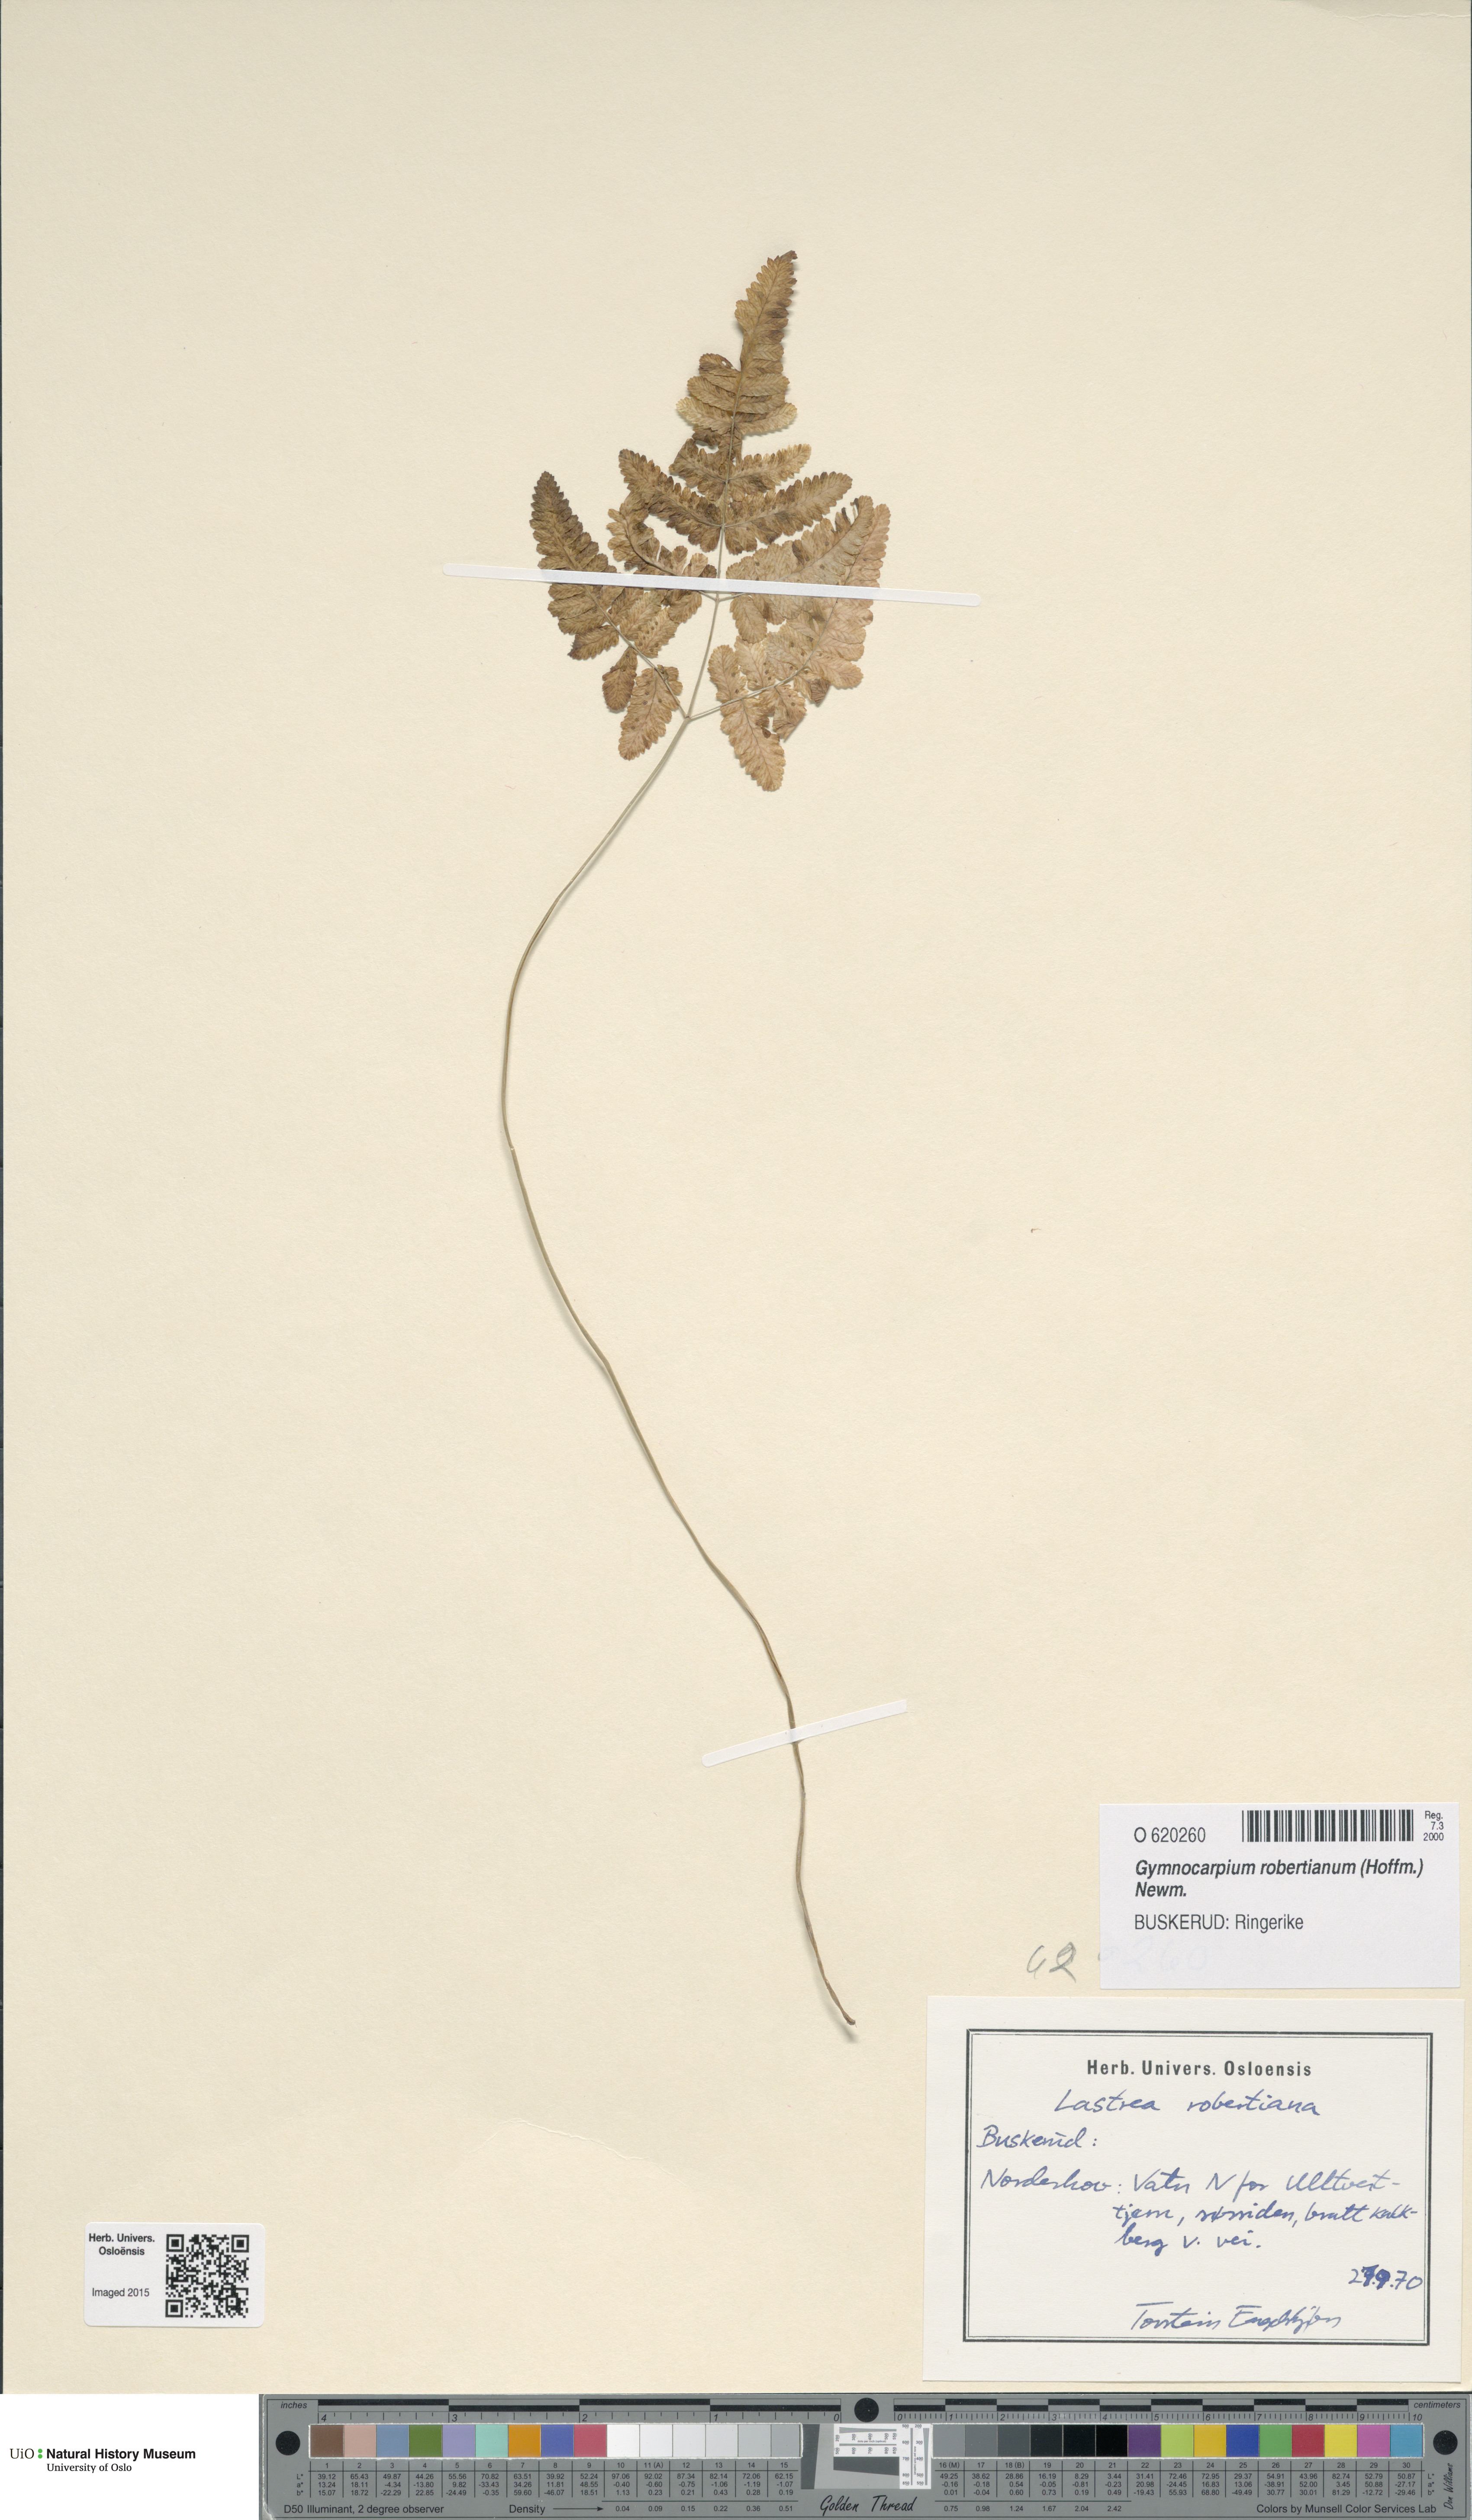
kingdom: Plantae
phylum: Tracheophyta
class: Polypodiopsida
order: Polypodiales
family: Cystopteridaceae
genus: Gymnocarpium
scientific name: Gymnocarpium robertianum
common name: Limestone fern
